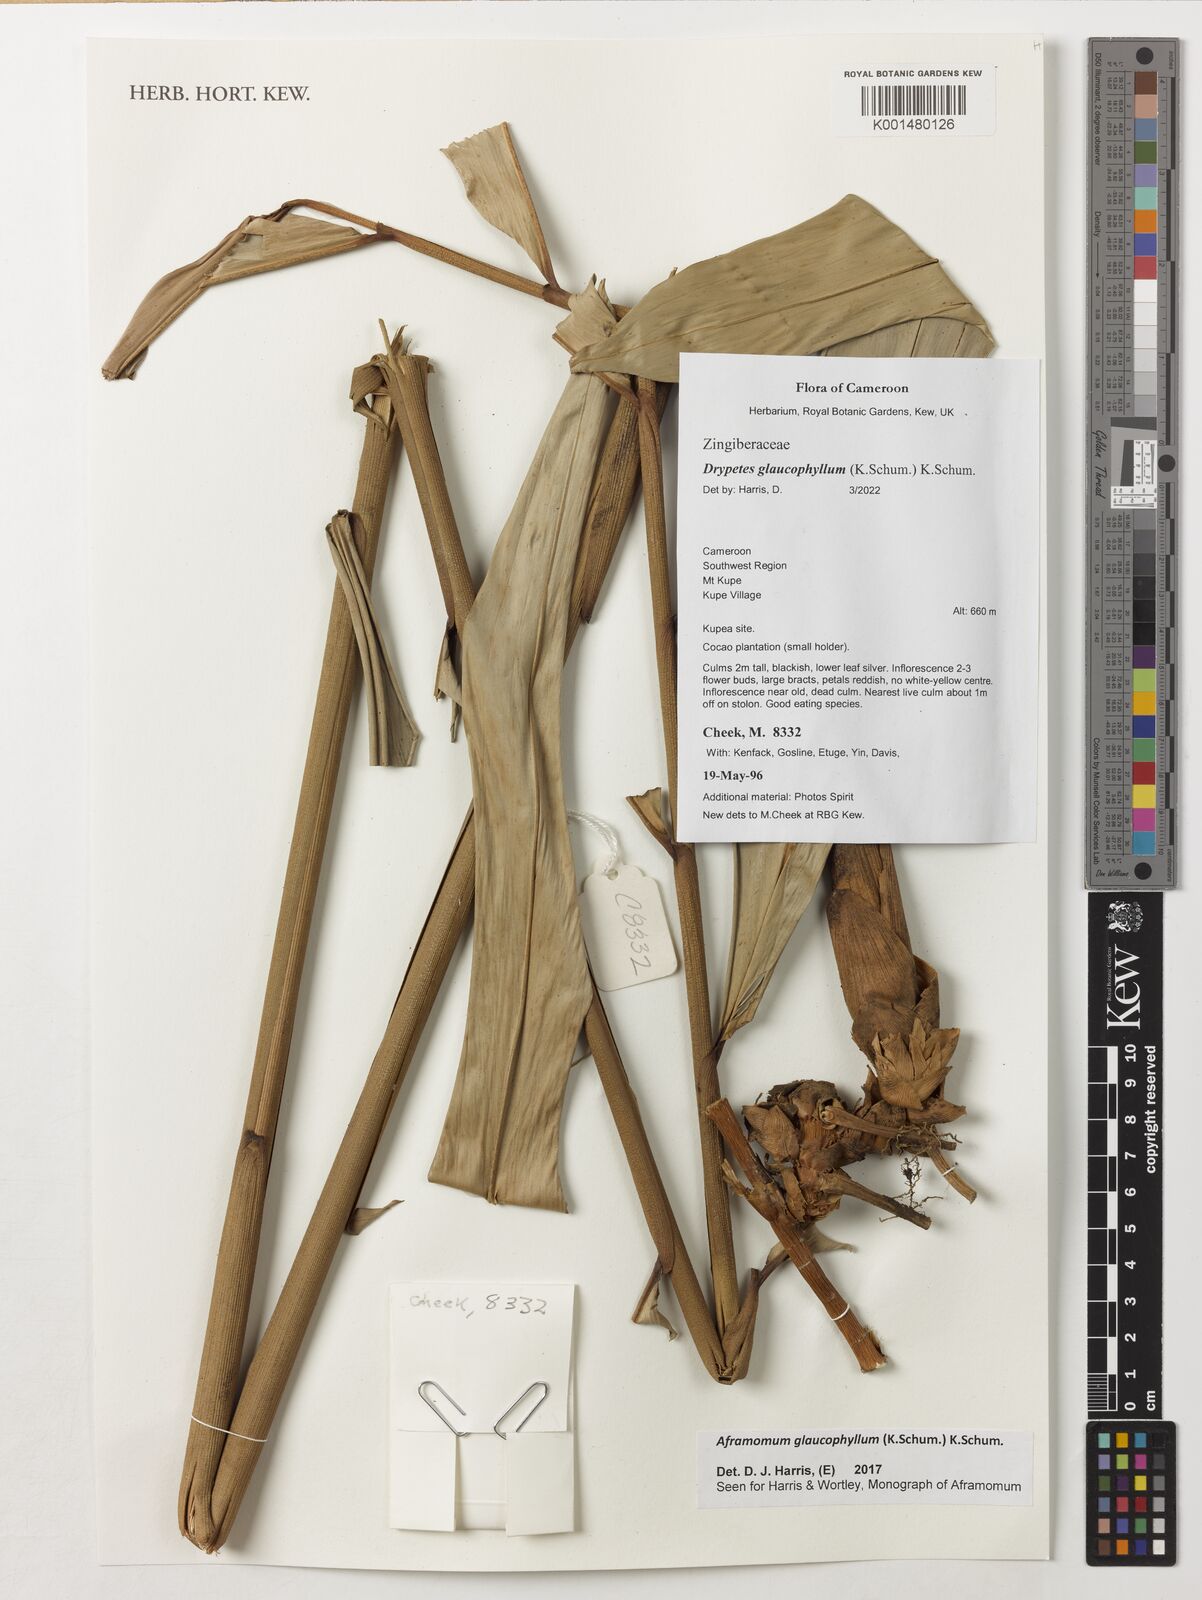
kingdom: Plantae
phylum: Tracheophyta
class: Liliopsida
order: Zingiberales
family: Zingiberaceae
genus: Aframomum
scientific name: Aframomum glaucophyllum
